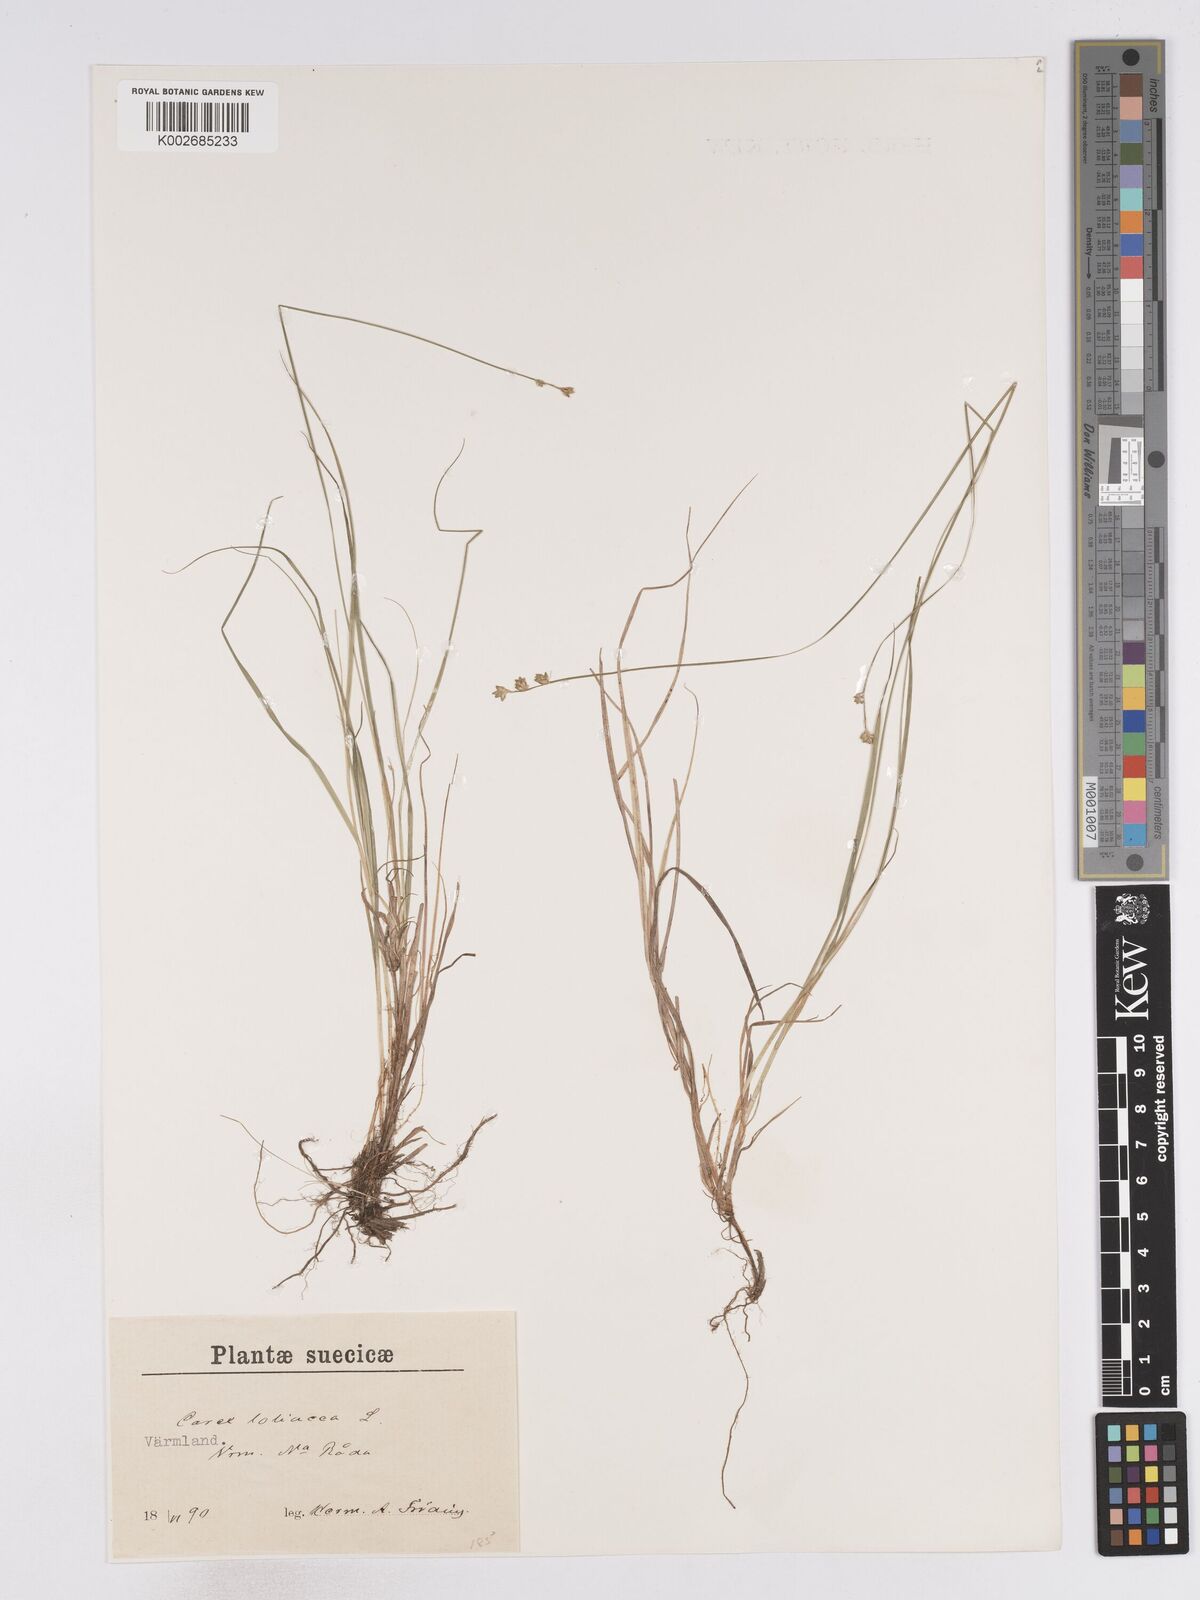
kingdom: Plantae
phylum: Tracheophyta
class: Liliopsida
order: Poales
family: Cyperaceae
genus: Carex
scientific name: Carex loliacea
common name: Ryegrass sedge
